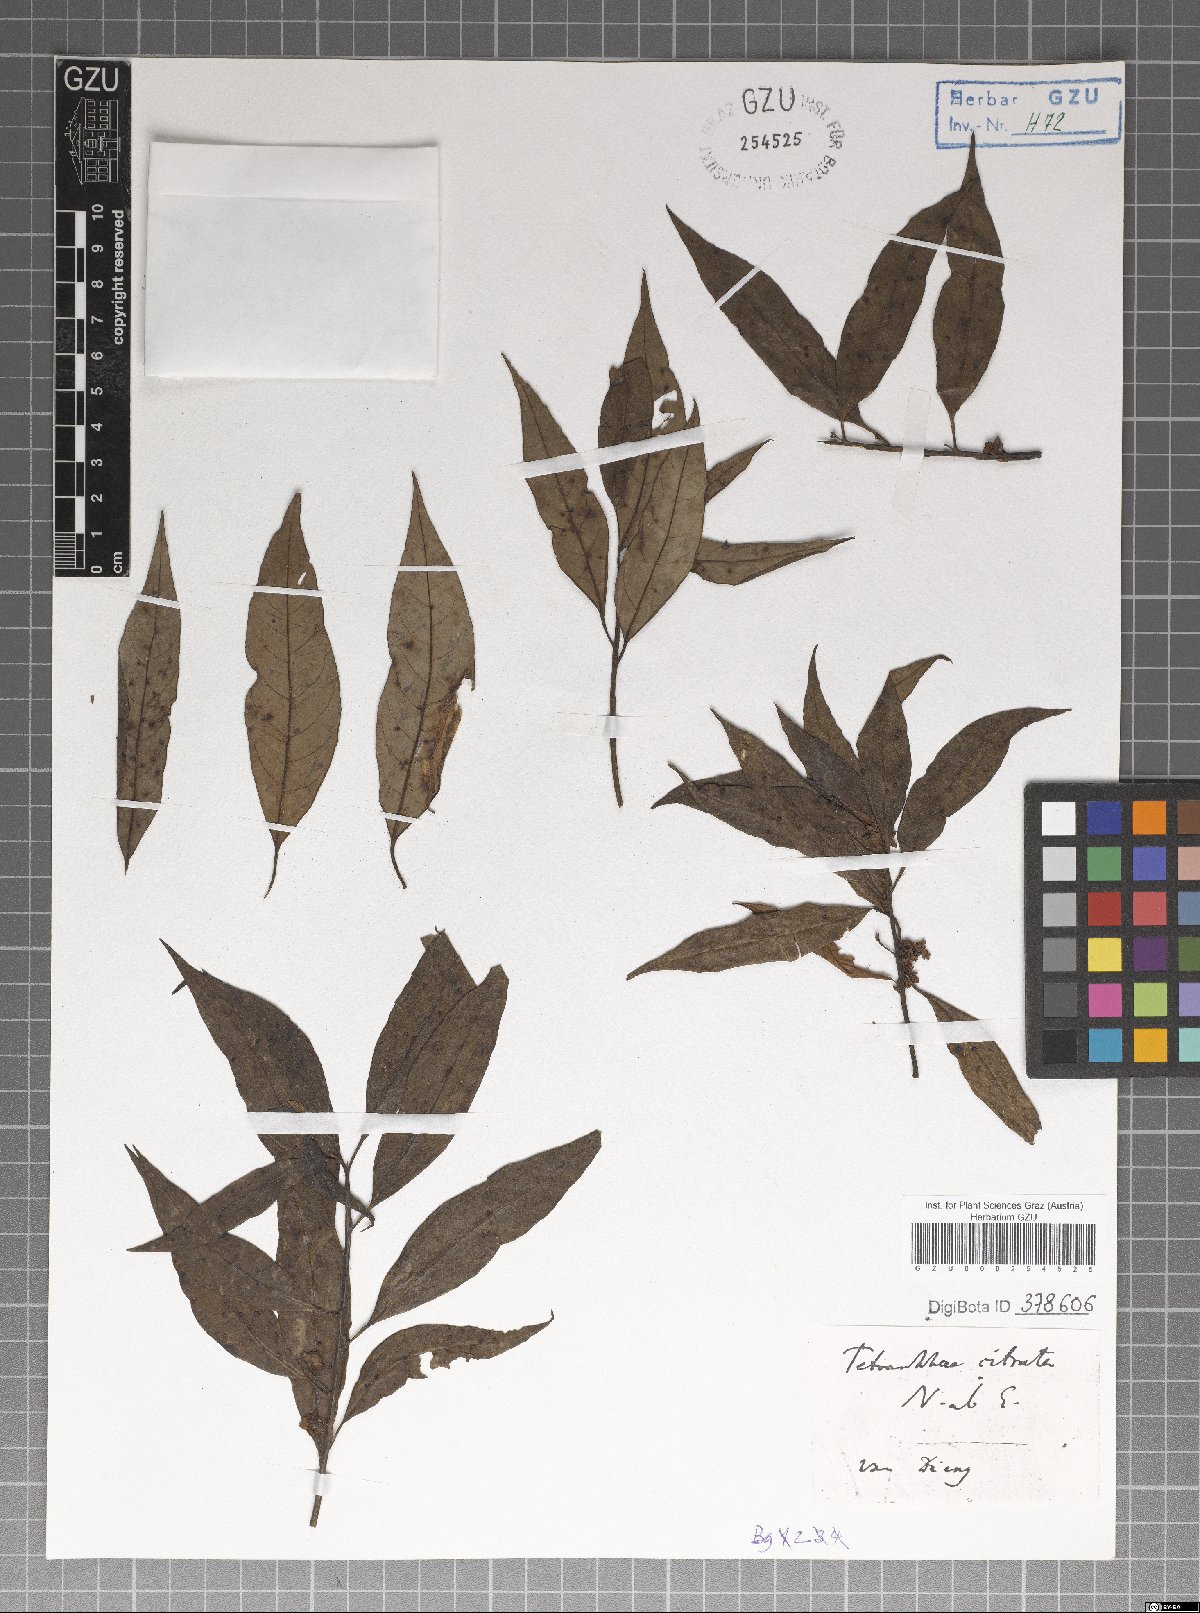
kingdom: Plantae
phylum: Tracheophyta
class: Magnoliopsida
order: Laurales
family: Lauraceae
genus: Litsea
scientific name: Litsea cubeba
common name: Mountain-pepper
